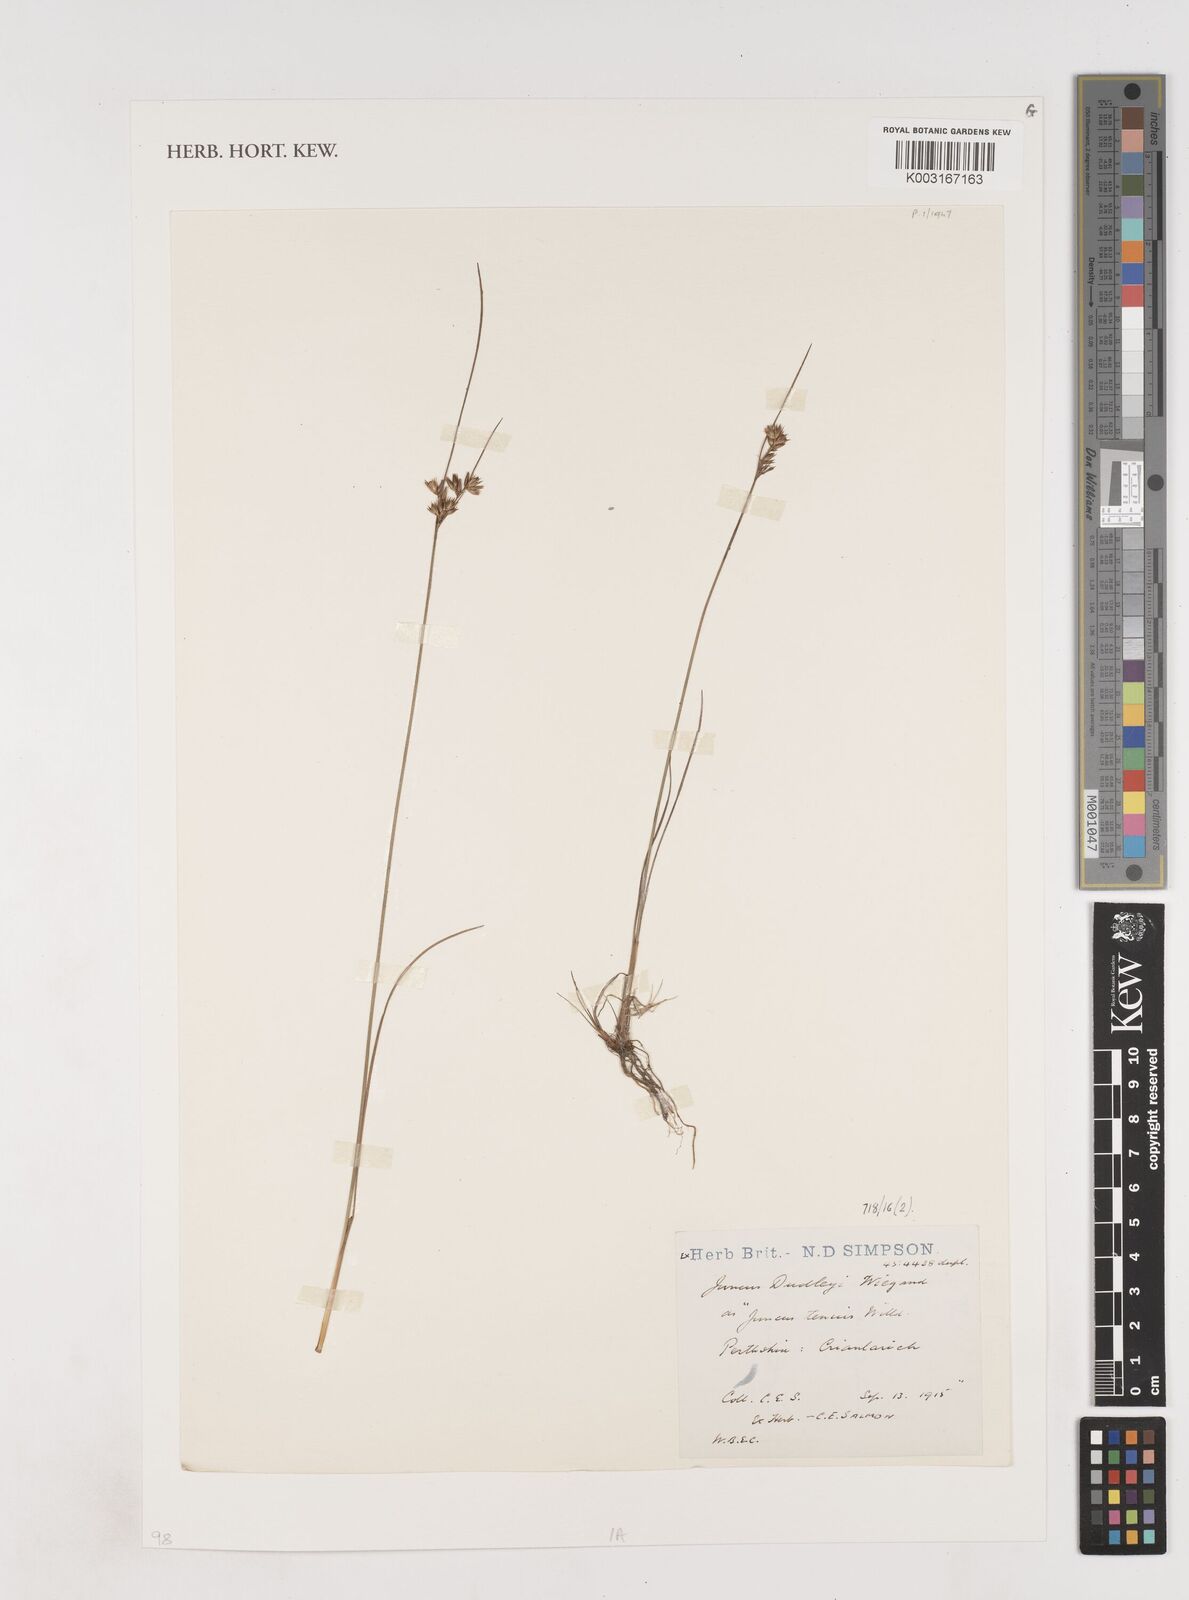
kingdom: Plantae
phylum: Tracheophyta
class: Liliopsida
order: Poales
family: Juncaceae
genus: Juncus
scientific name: Juncus tenuis
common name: Slender rush
